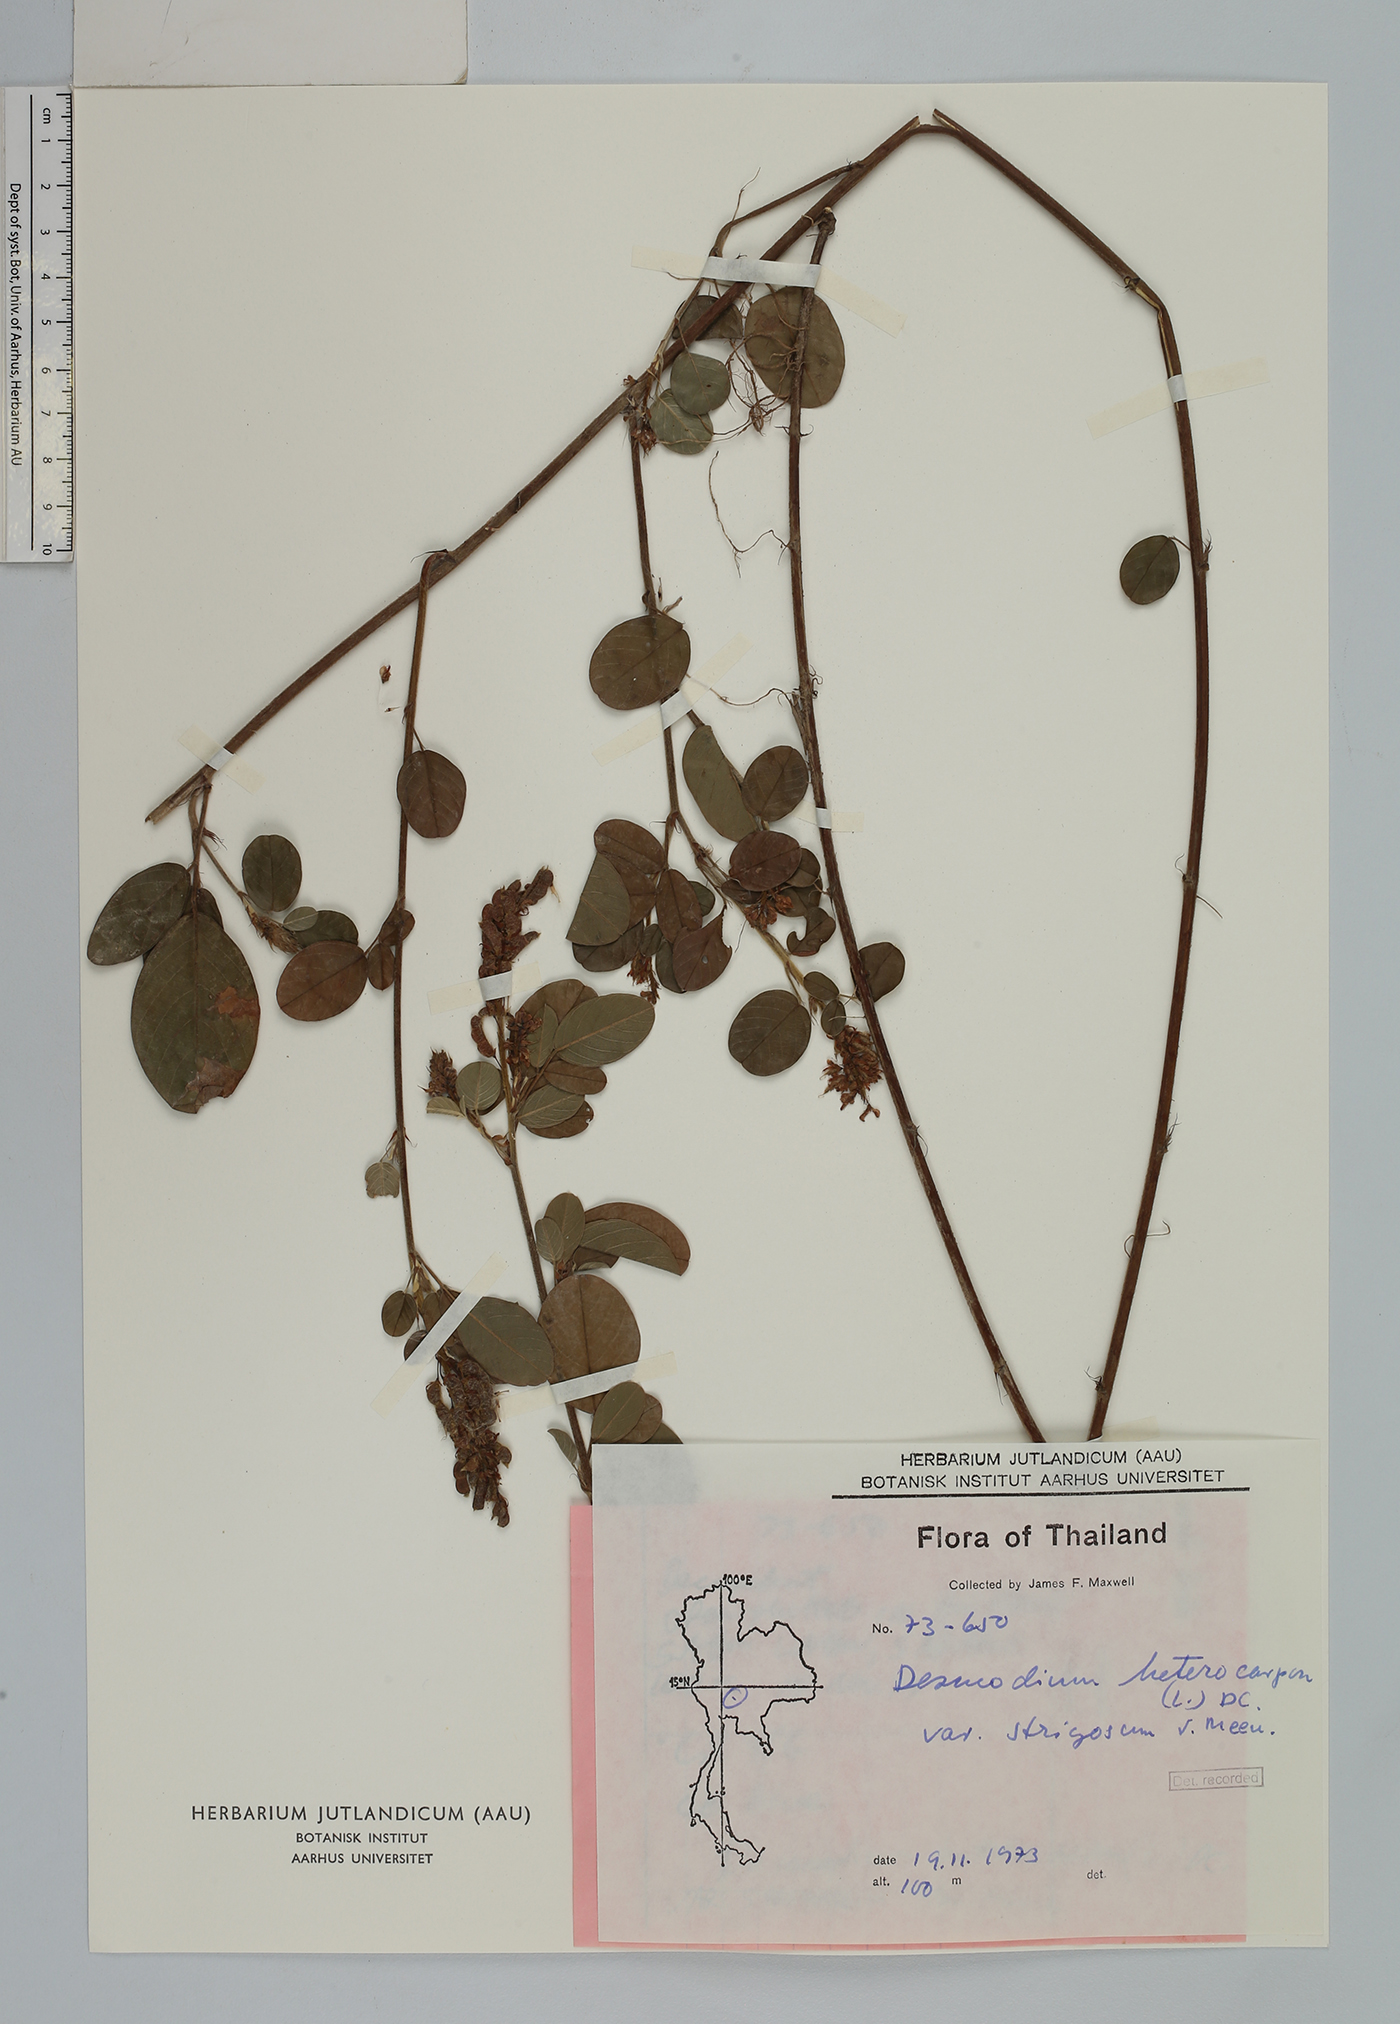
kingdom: Plantae
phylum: Tracheophyta
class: Magnoliopsida
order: Fabales
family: Fabaceae
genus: Grona
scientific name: Grona heterocarpos
